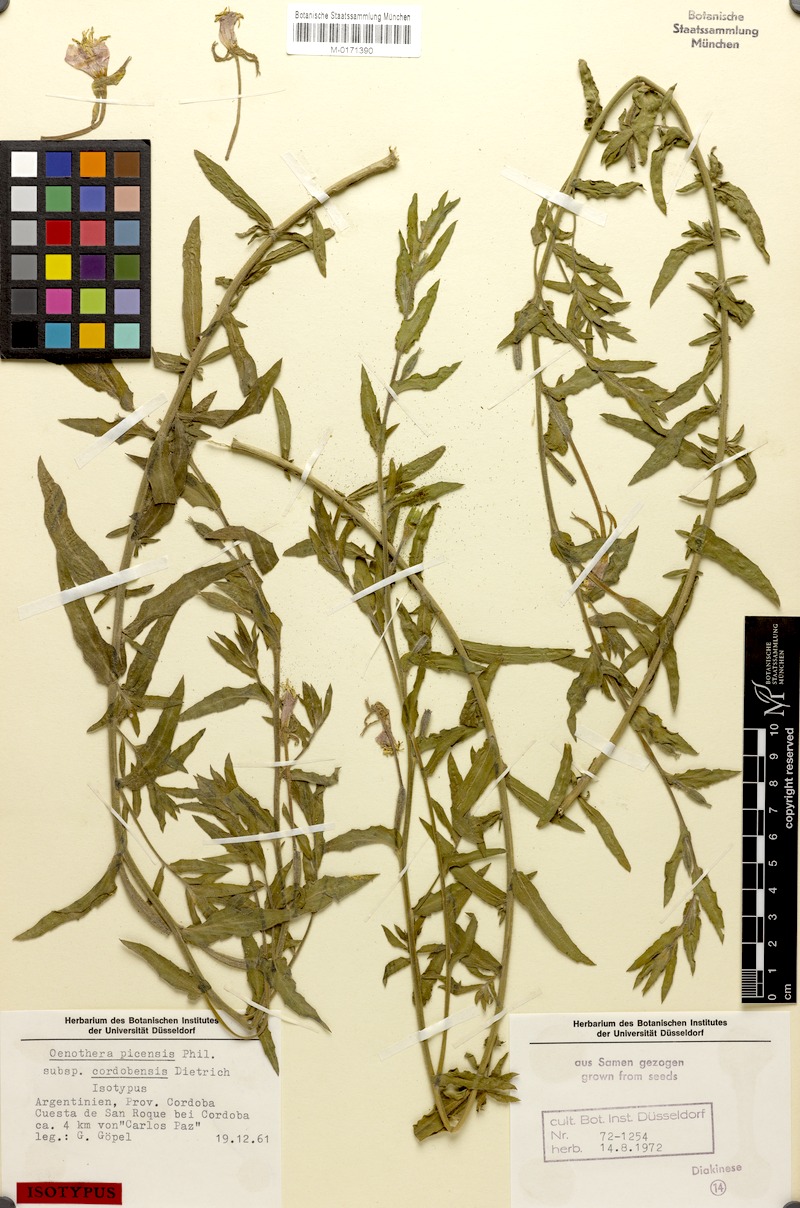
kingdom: Plantae
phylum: Tracheophyta
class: Magnoliopsida
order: Myrtales
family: Onagraceae
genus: Oenothera
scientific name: Oenothera picensis
